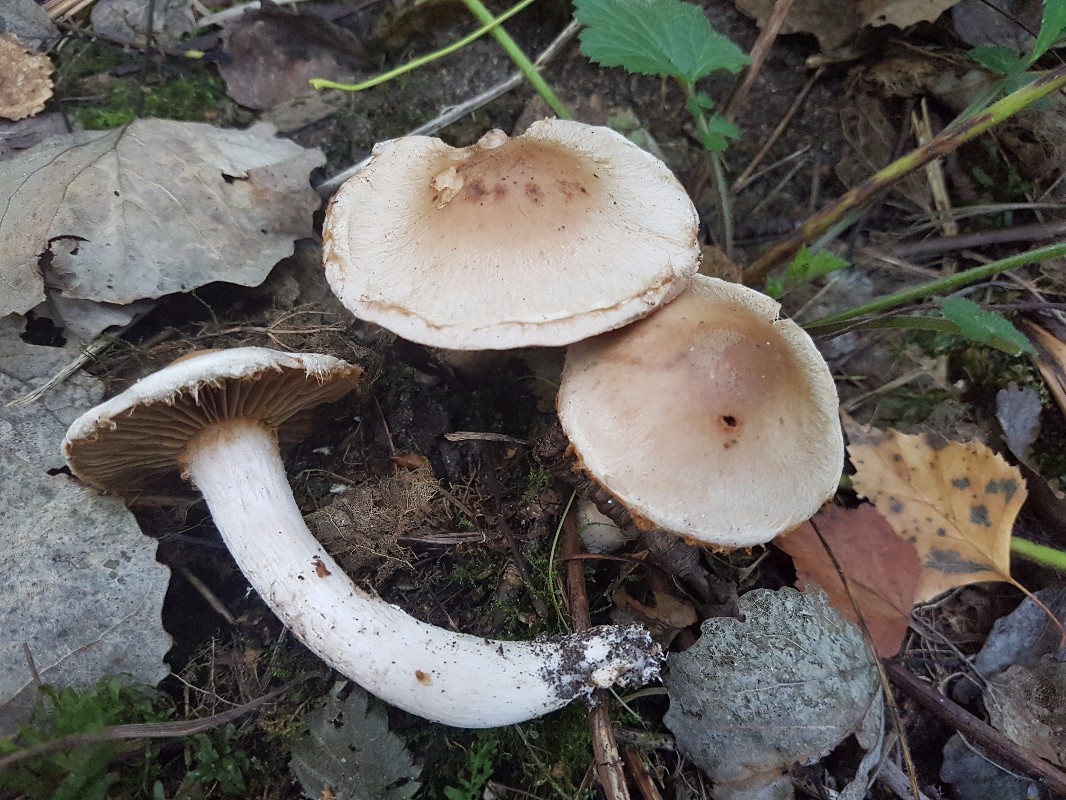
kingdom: Fungi
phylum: Basidiomycota
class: Agaricomycetes
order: Agaricales
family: Cortinariaceae
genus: Cortinarius
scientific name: Cortinarius lucorum
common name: aspe-slørhat
